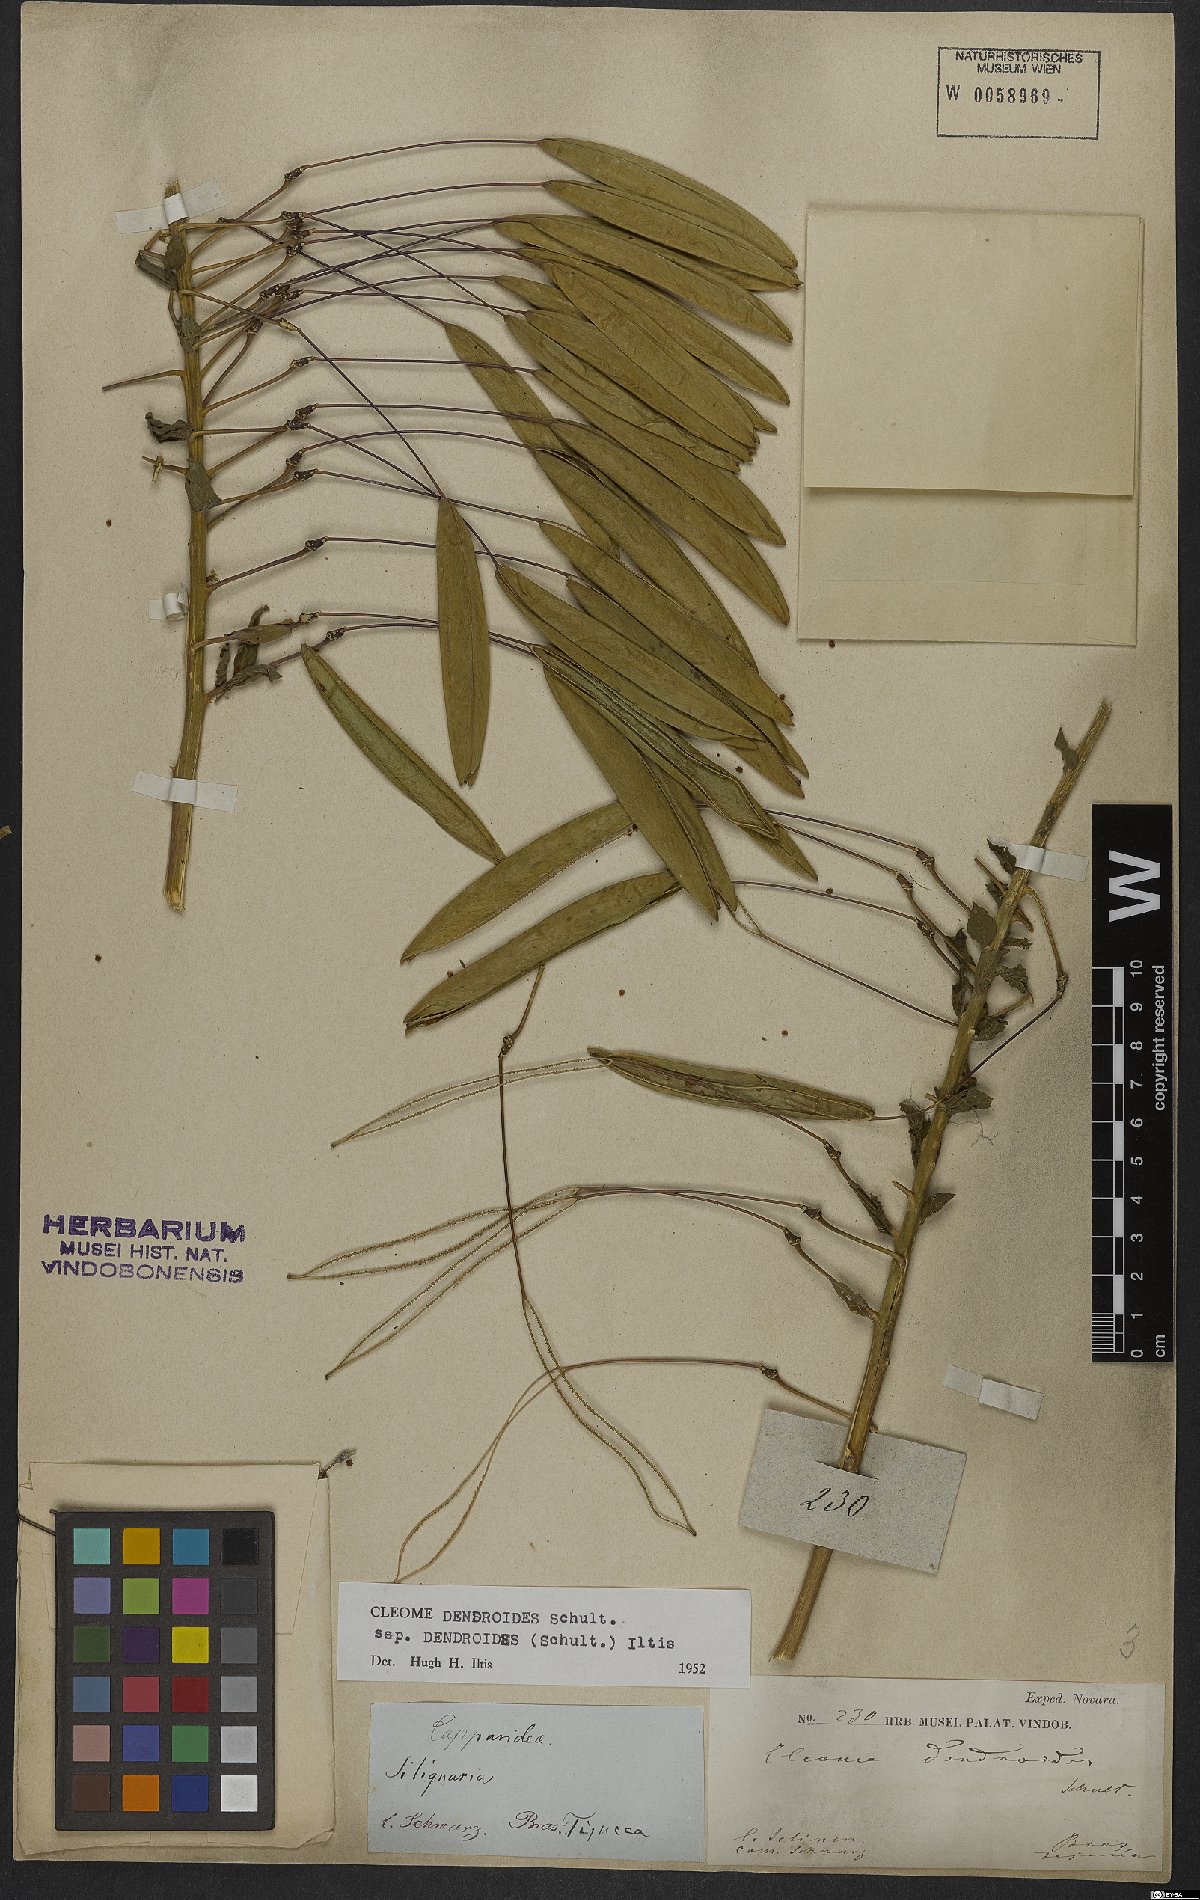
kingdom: Plantae
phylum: Tracheophyta
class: Magnoliopsida
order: Brassicales
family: Cleomaceae
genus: Tarenaya
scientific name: Tarenaya atropurpurea
